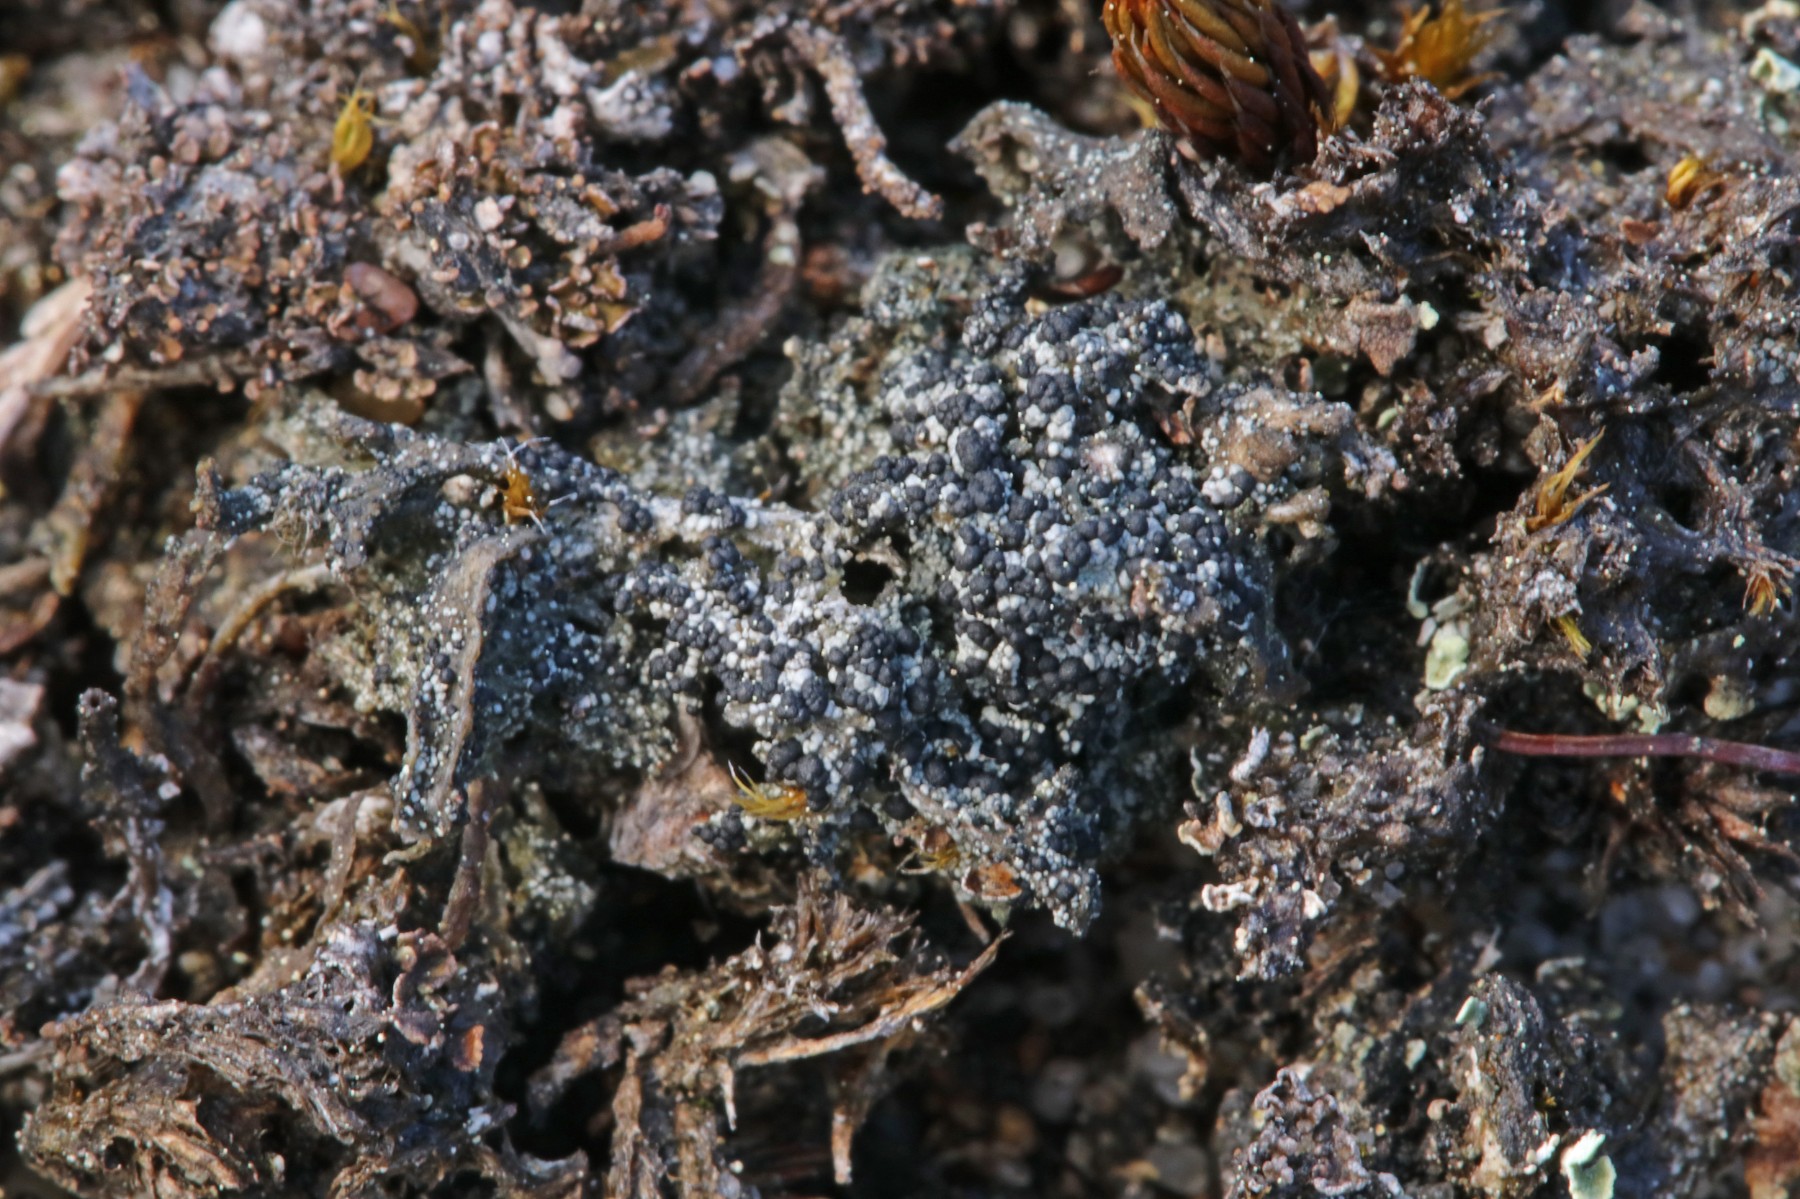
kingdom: Fungi
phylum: Ascomycota
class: Lecanoromycetes
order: Lecanorales
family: Byssolomataceae
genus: Micarea
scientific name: Micarea lignaria
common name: tørve-knaplav
